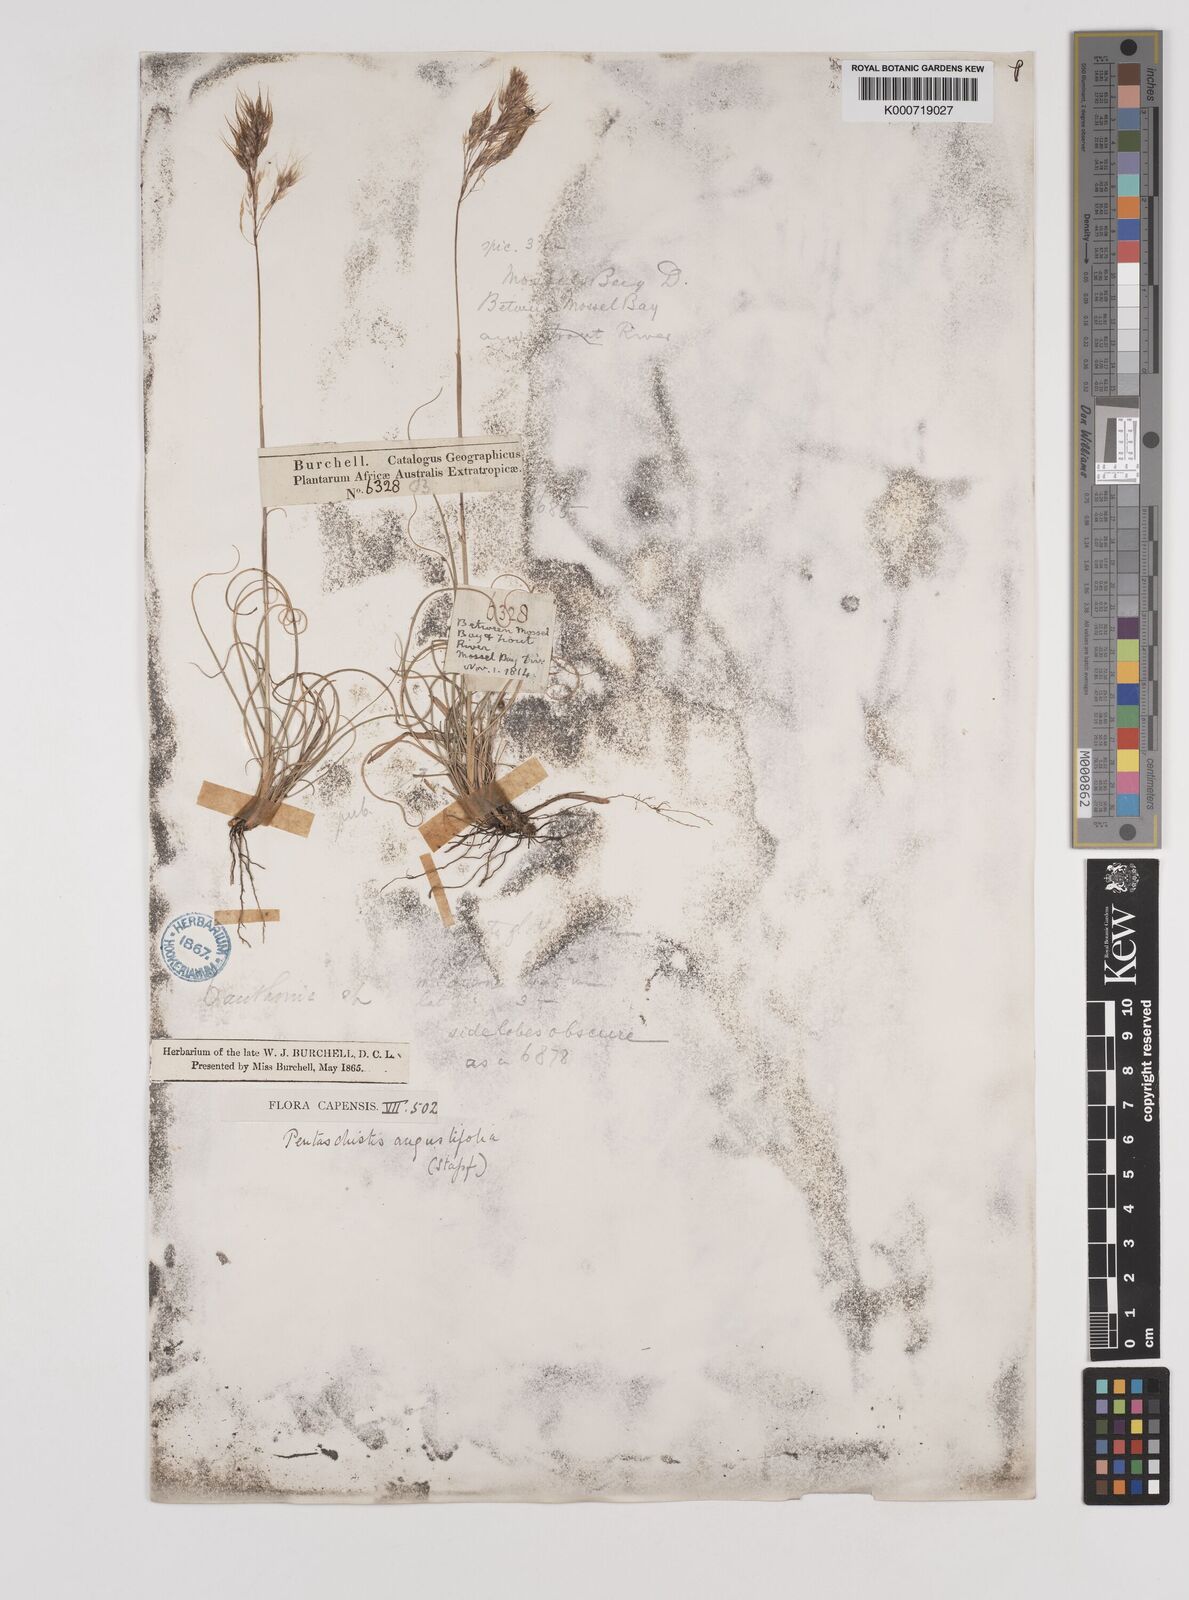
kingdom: Plantae
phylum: Tracheophyta
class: Liliopsida
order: Poales
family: Poaceae
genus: Pentameris
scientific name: Pentameris pallida
